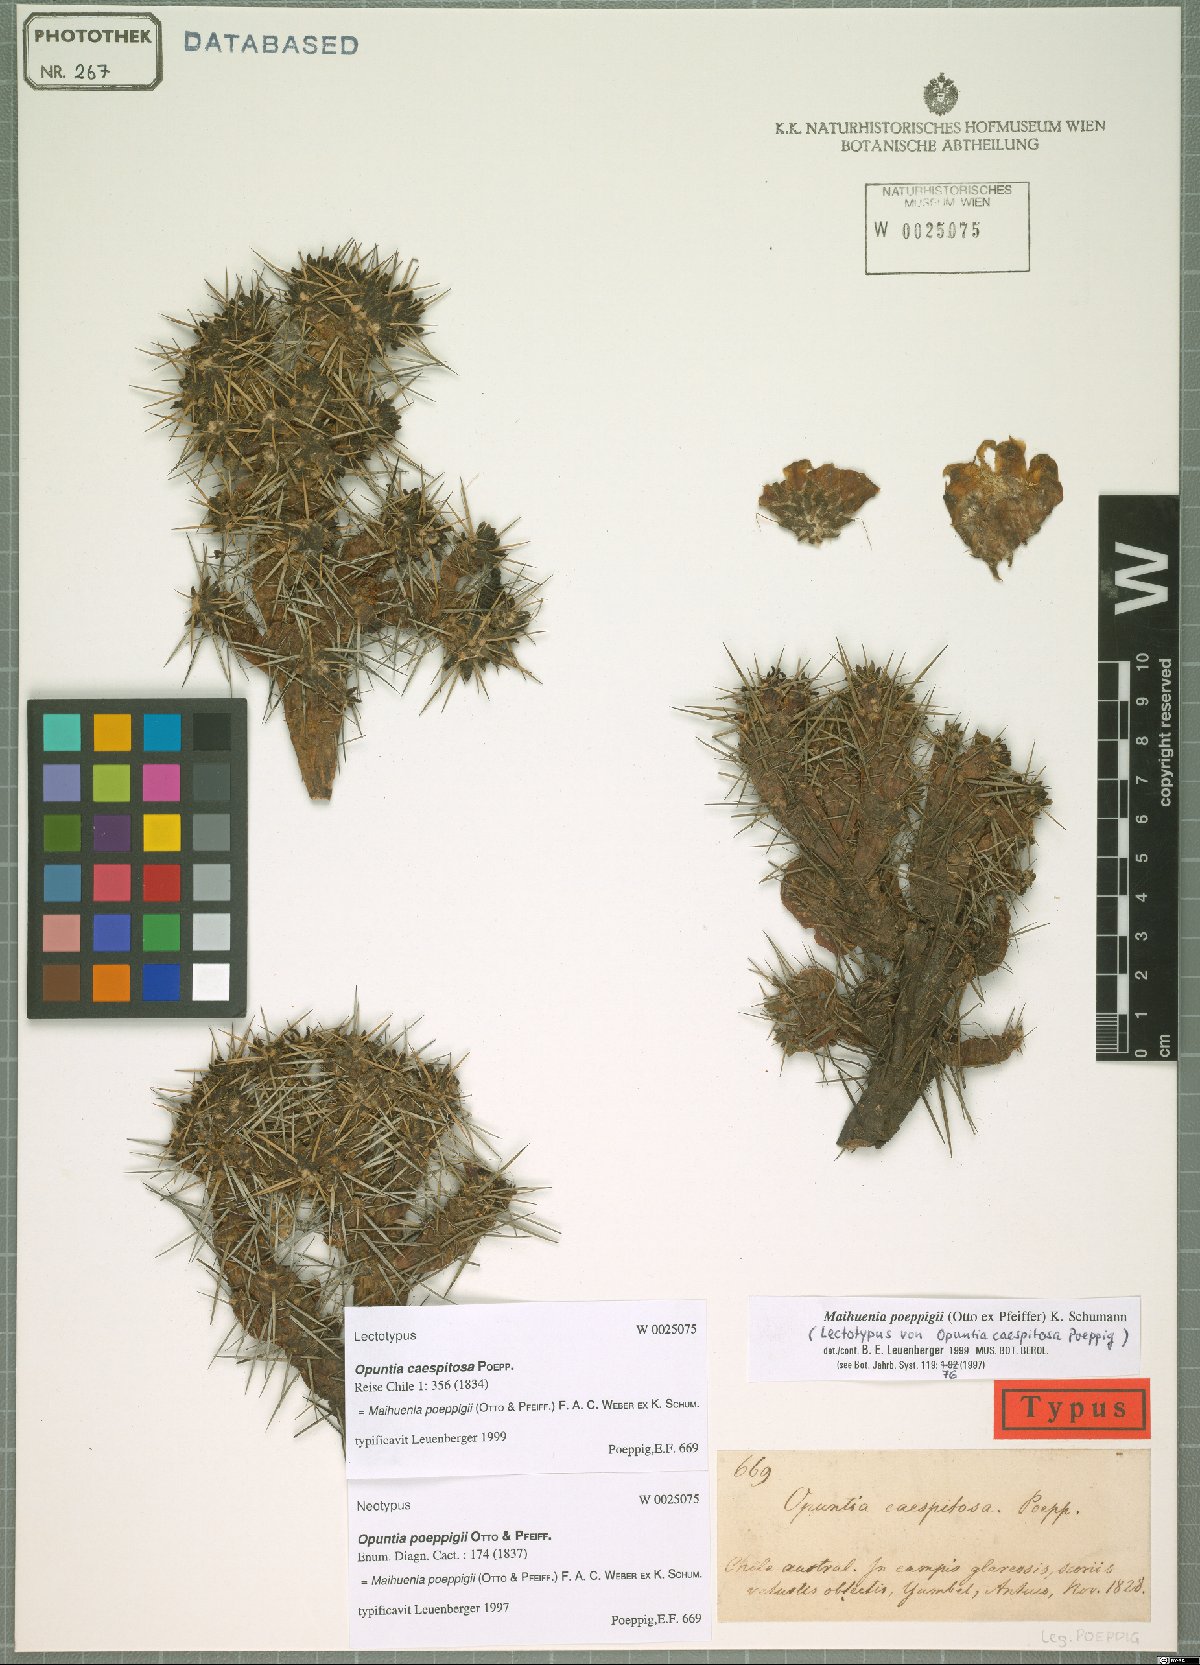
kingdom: Plantae
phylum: Tracheophyta
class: Magnoliopsida
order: Caryophyllales
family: Cactaceae
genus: Maihuenia
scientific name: Maihuenia poeppigii
